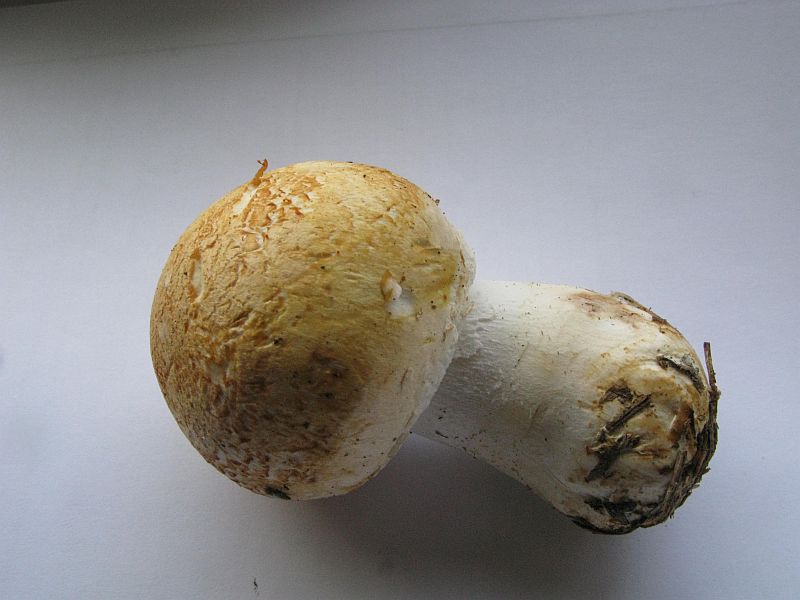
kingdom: Fungi
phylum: Basidiomycota
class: Agaricomycetes
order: Agaricales
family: Agaricaceae
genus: Agaricus
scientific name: Agaricus arvensis
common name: ager-champignon
